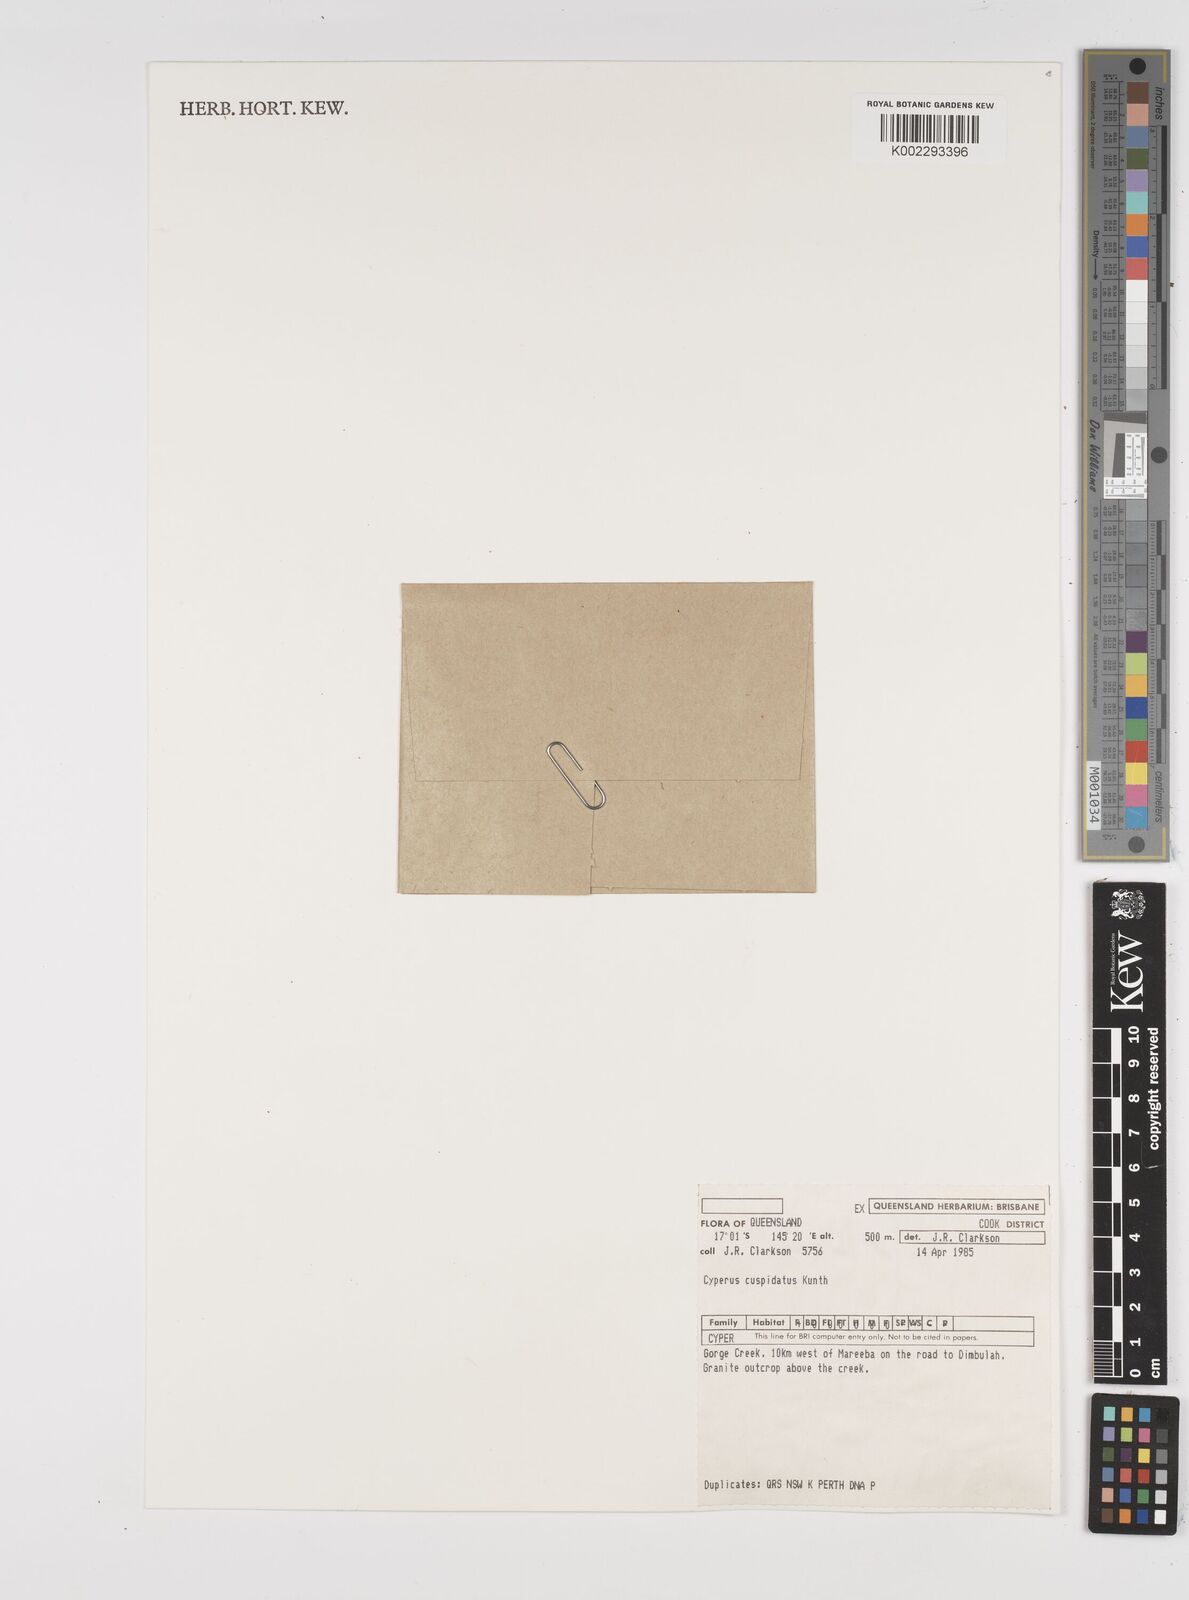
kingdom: Plantae
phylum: Tracheophyta
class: Liliopsida
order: Poales
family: Cyperaceae
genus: Cyperus
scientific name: Cyperus cuspidatus
